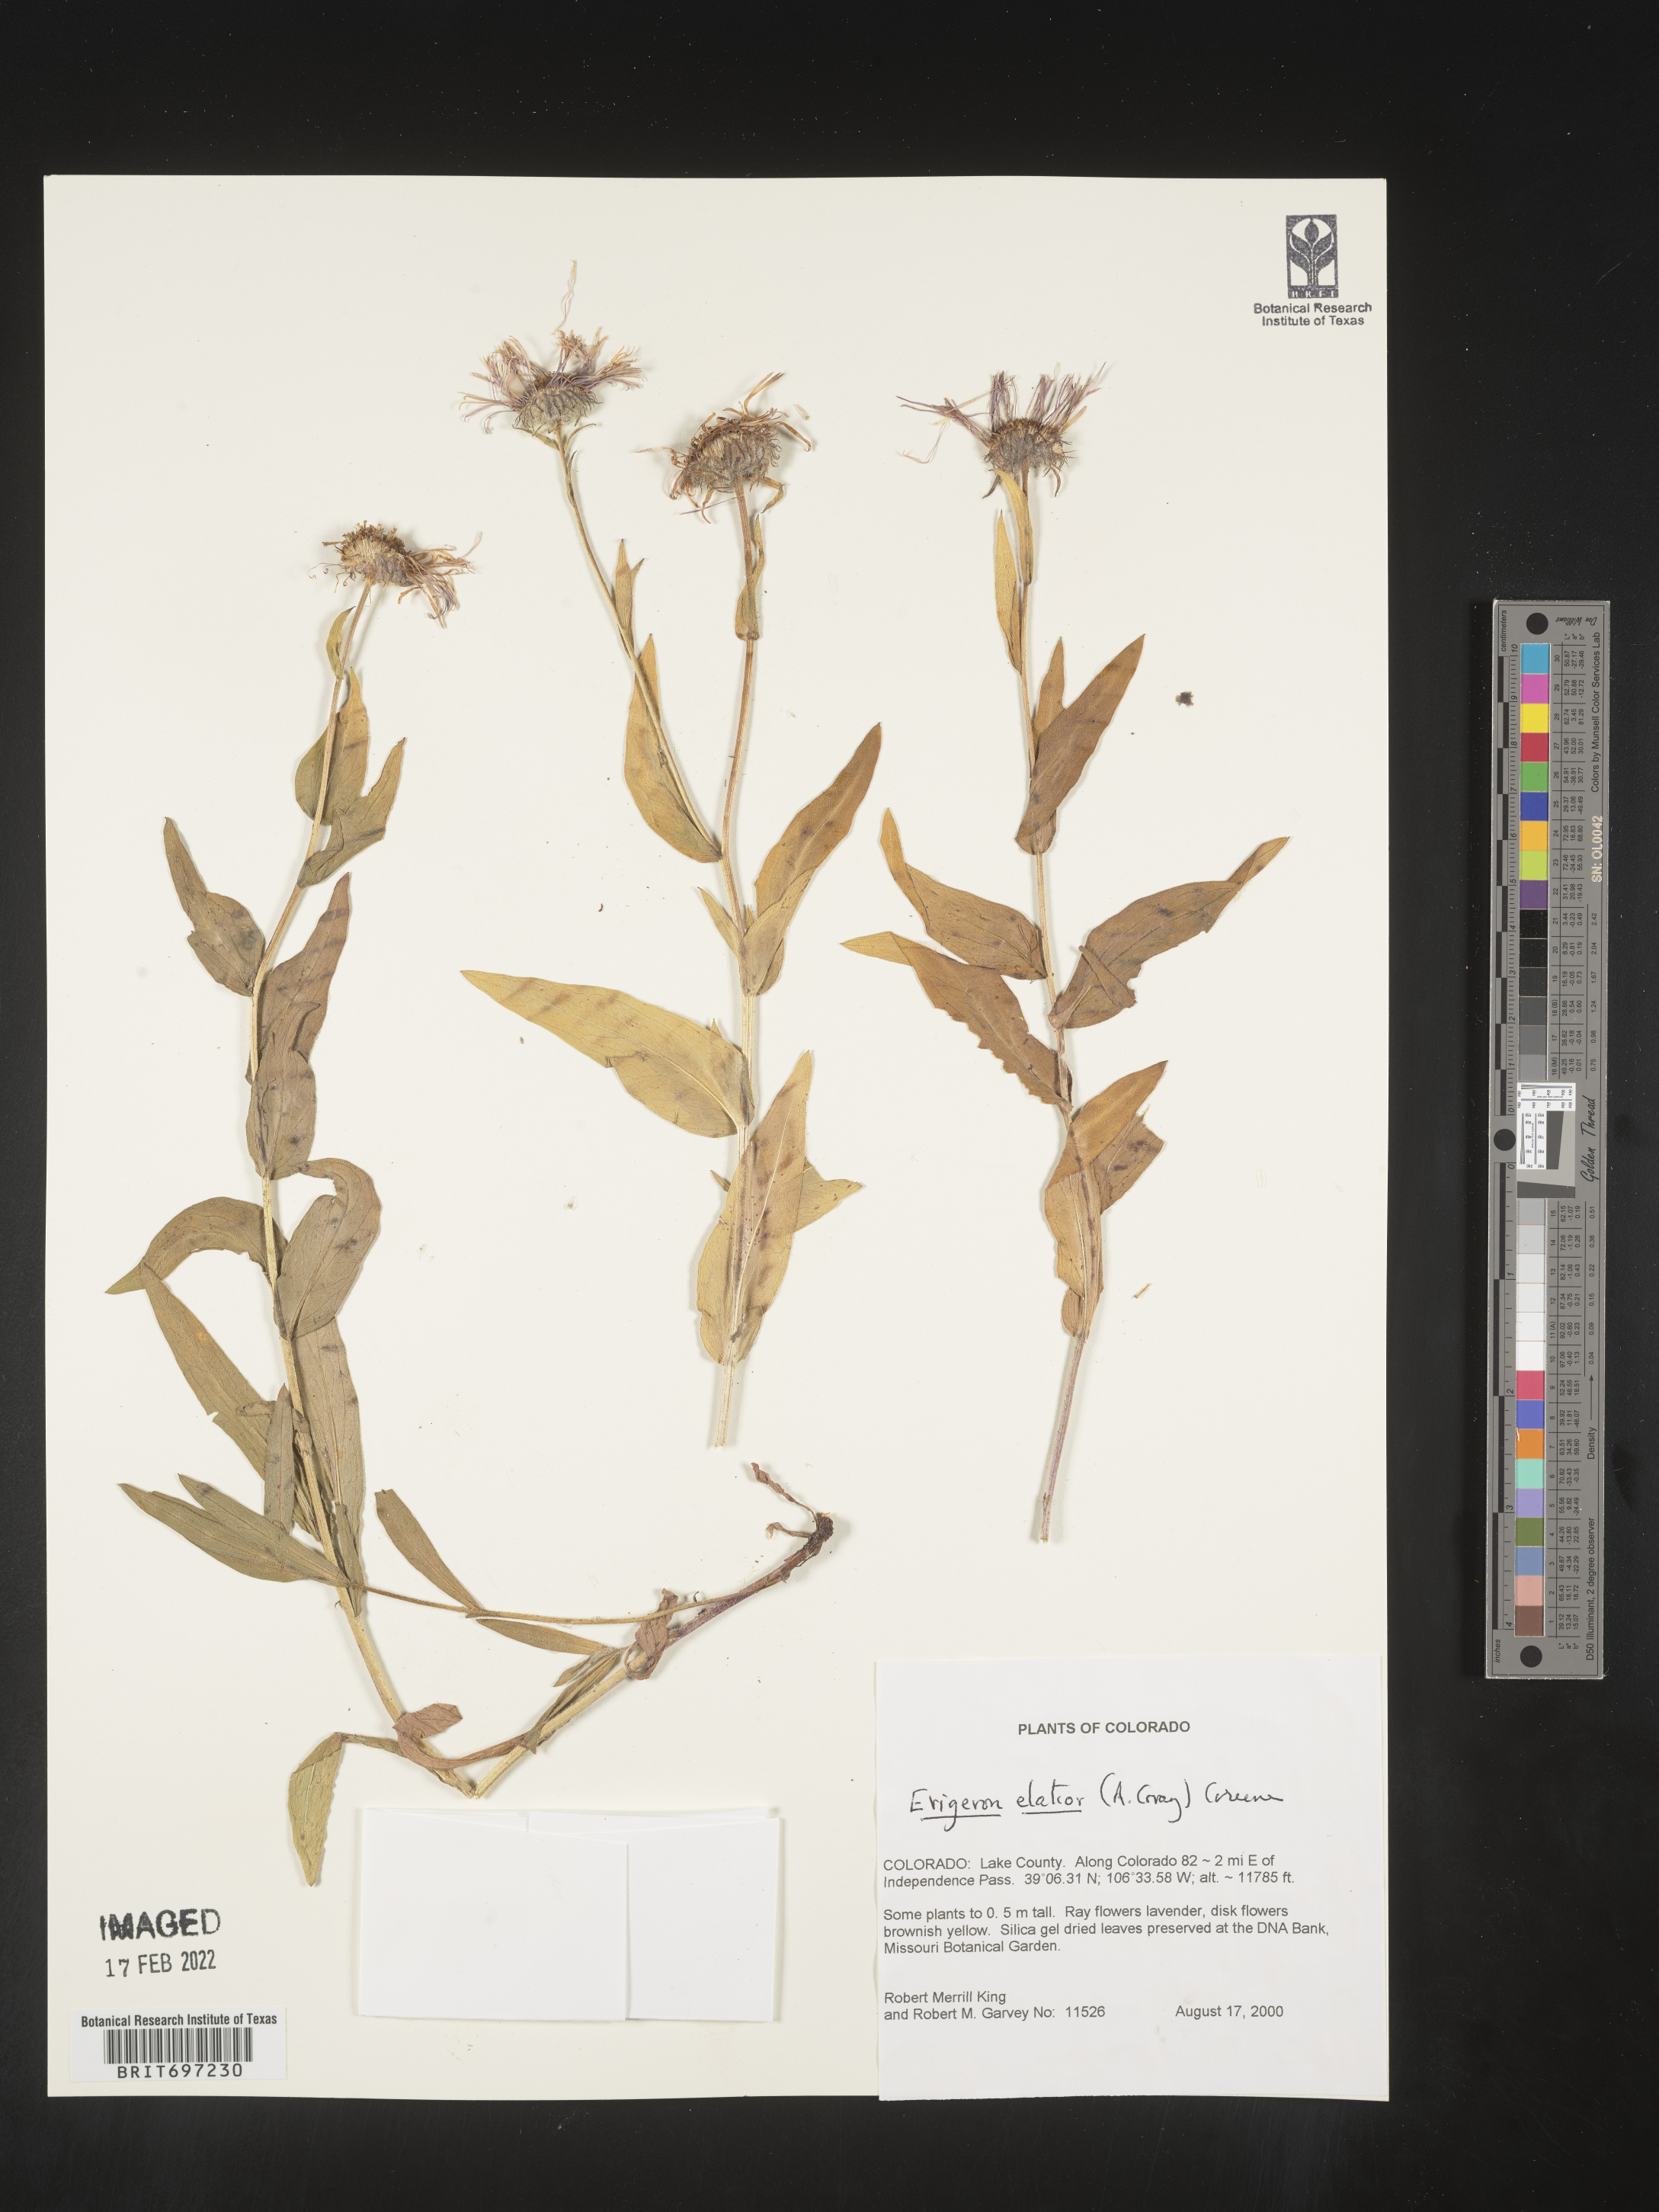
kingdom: Plantae
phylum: Tracheophyta
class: Magnoliopsida
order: Asterales
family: Asteraceae
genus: Erigeron
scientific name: Erigeron elatior
